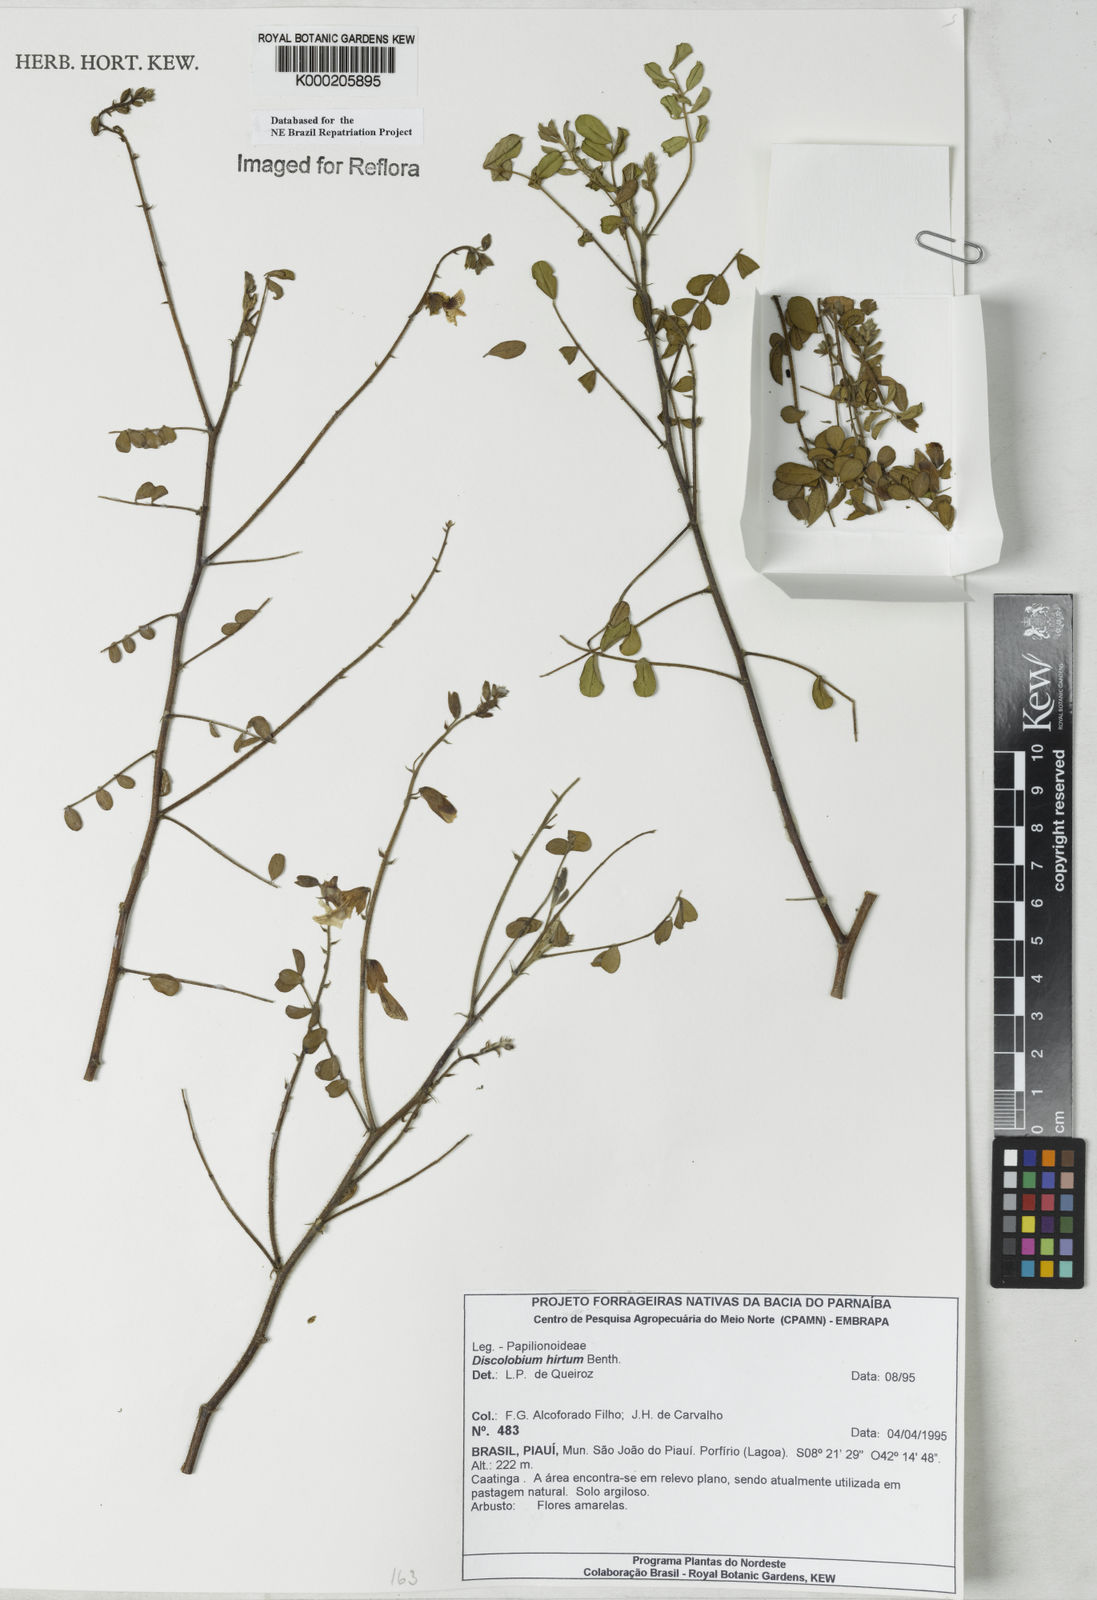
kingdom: Plantae
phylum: Tracheophyta
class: Magnoliopsida
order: Fabales
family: Fabaceae
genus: Discolobium
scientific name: Discolobium hirtum
